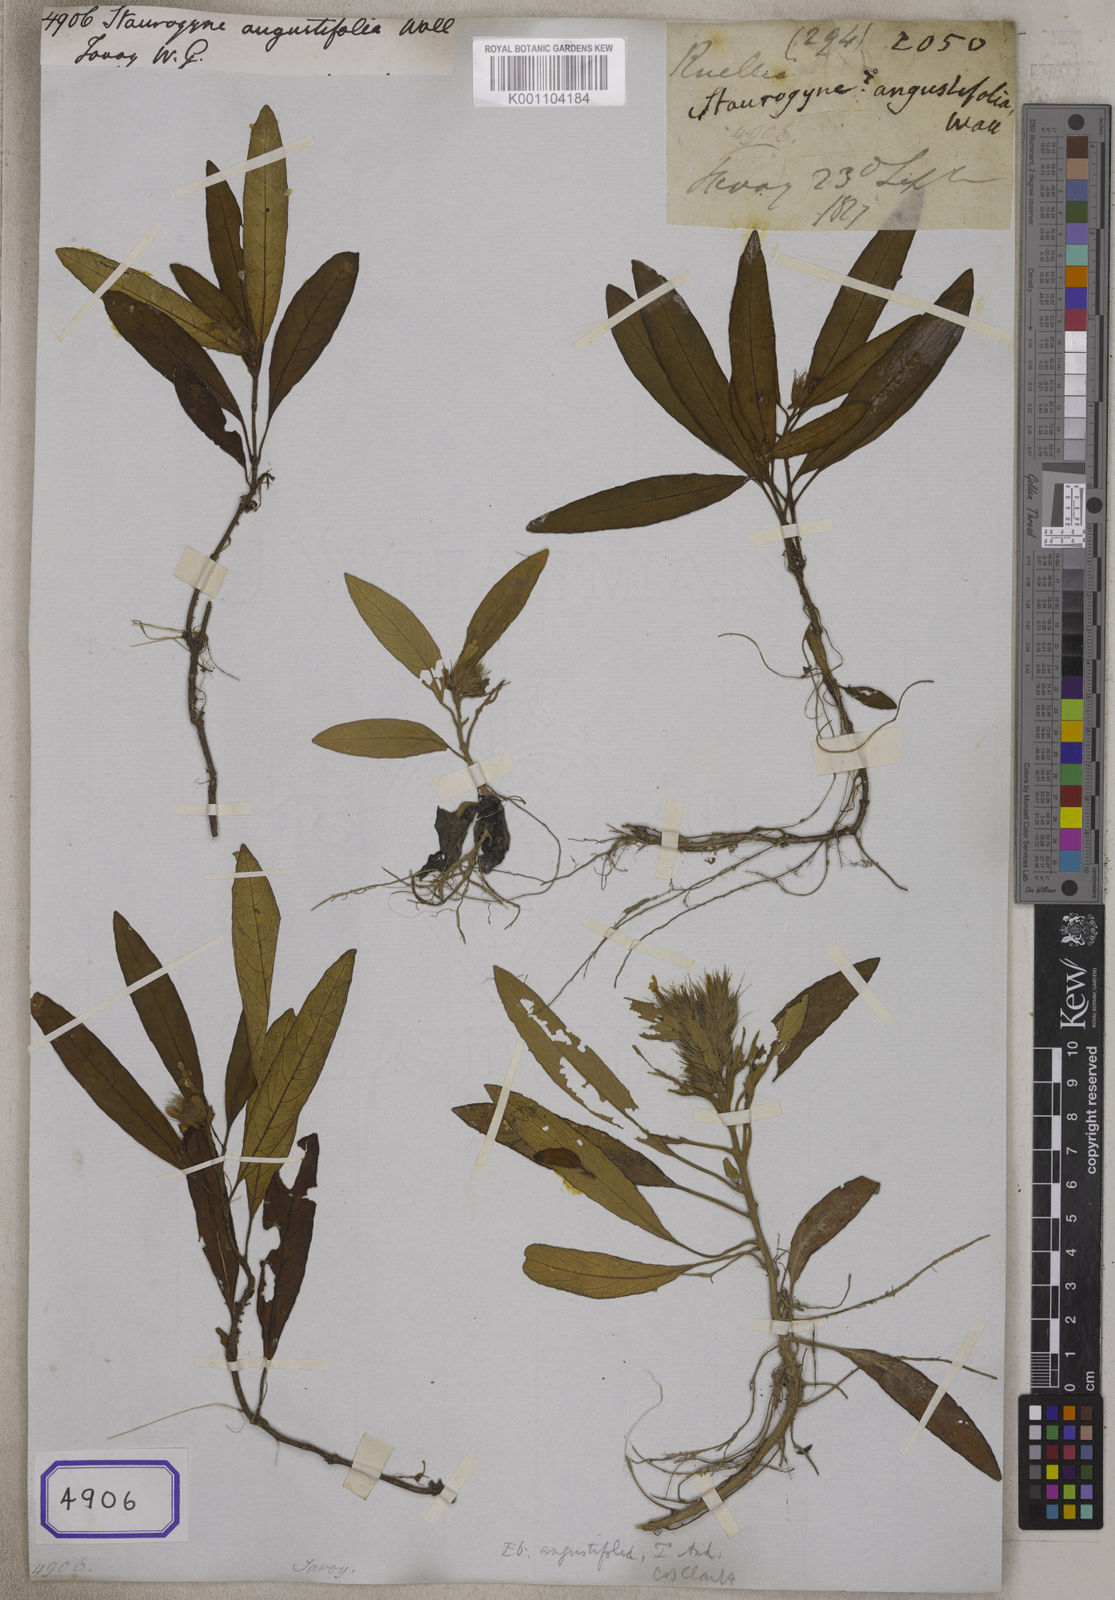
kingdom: Plantae
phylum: Tracheophyta
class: Magnoliopsida
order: Lamiales
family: Acanthaceae
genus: Staurogyne
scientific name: Staurogyne argentea
